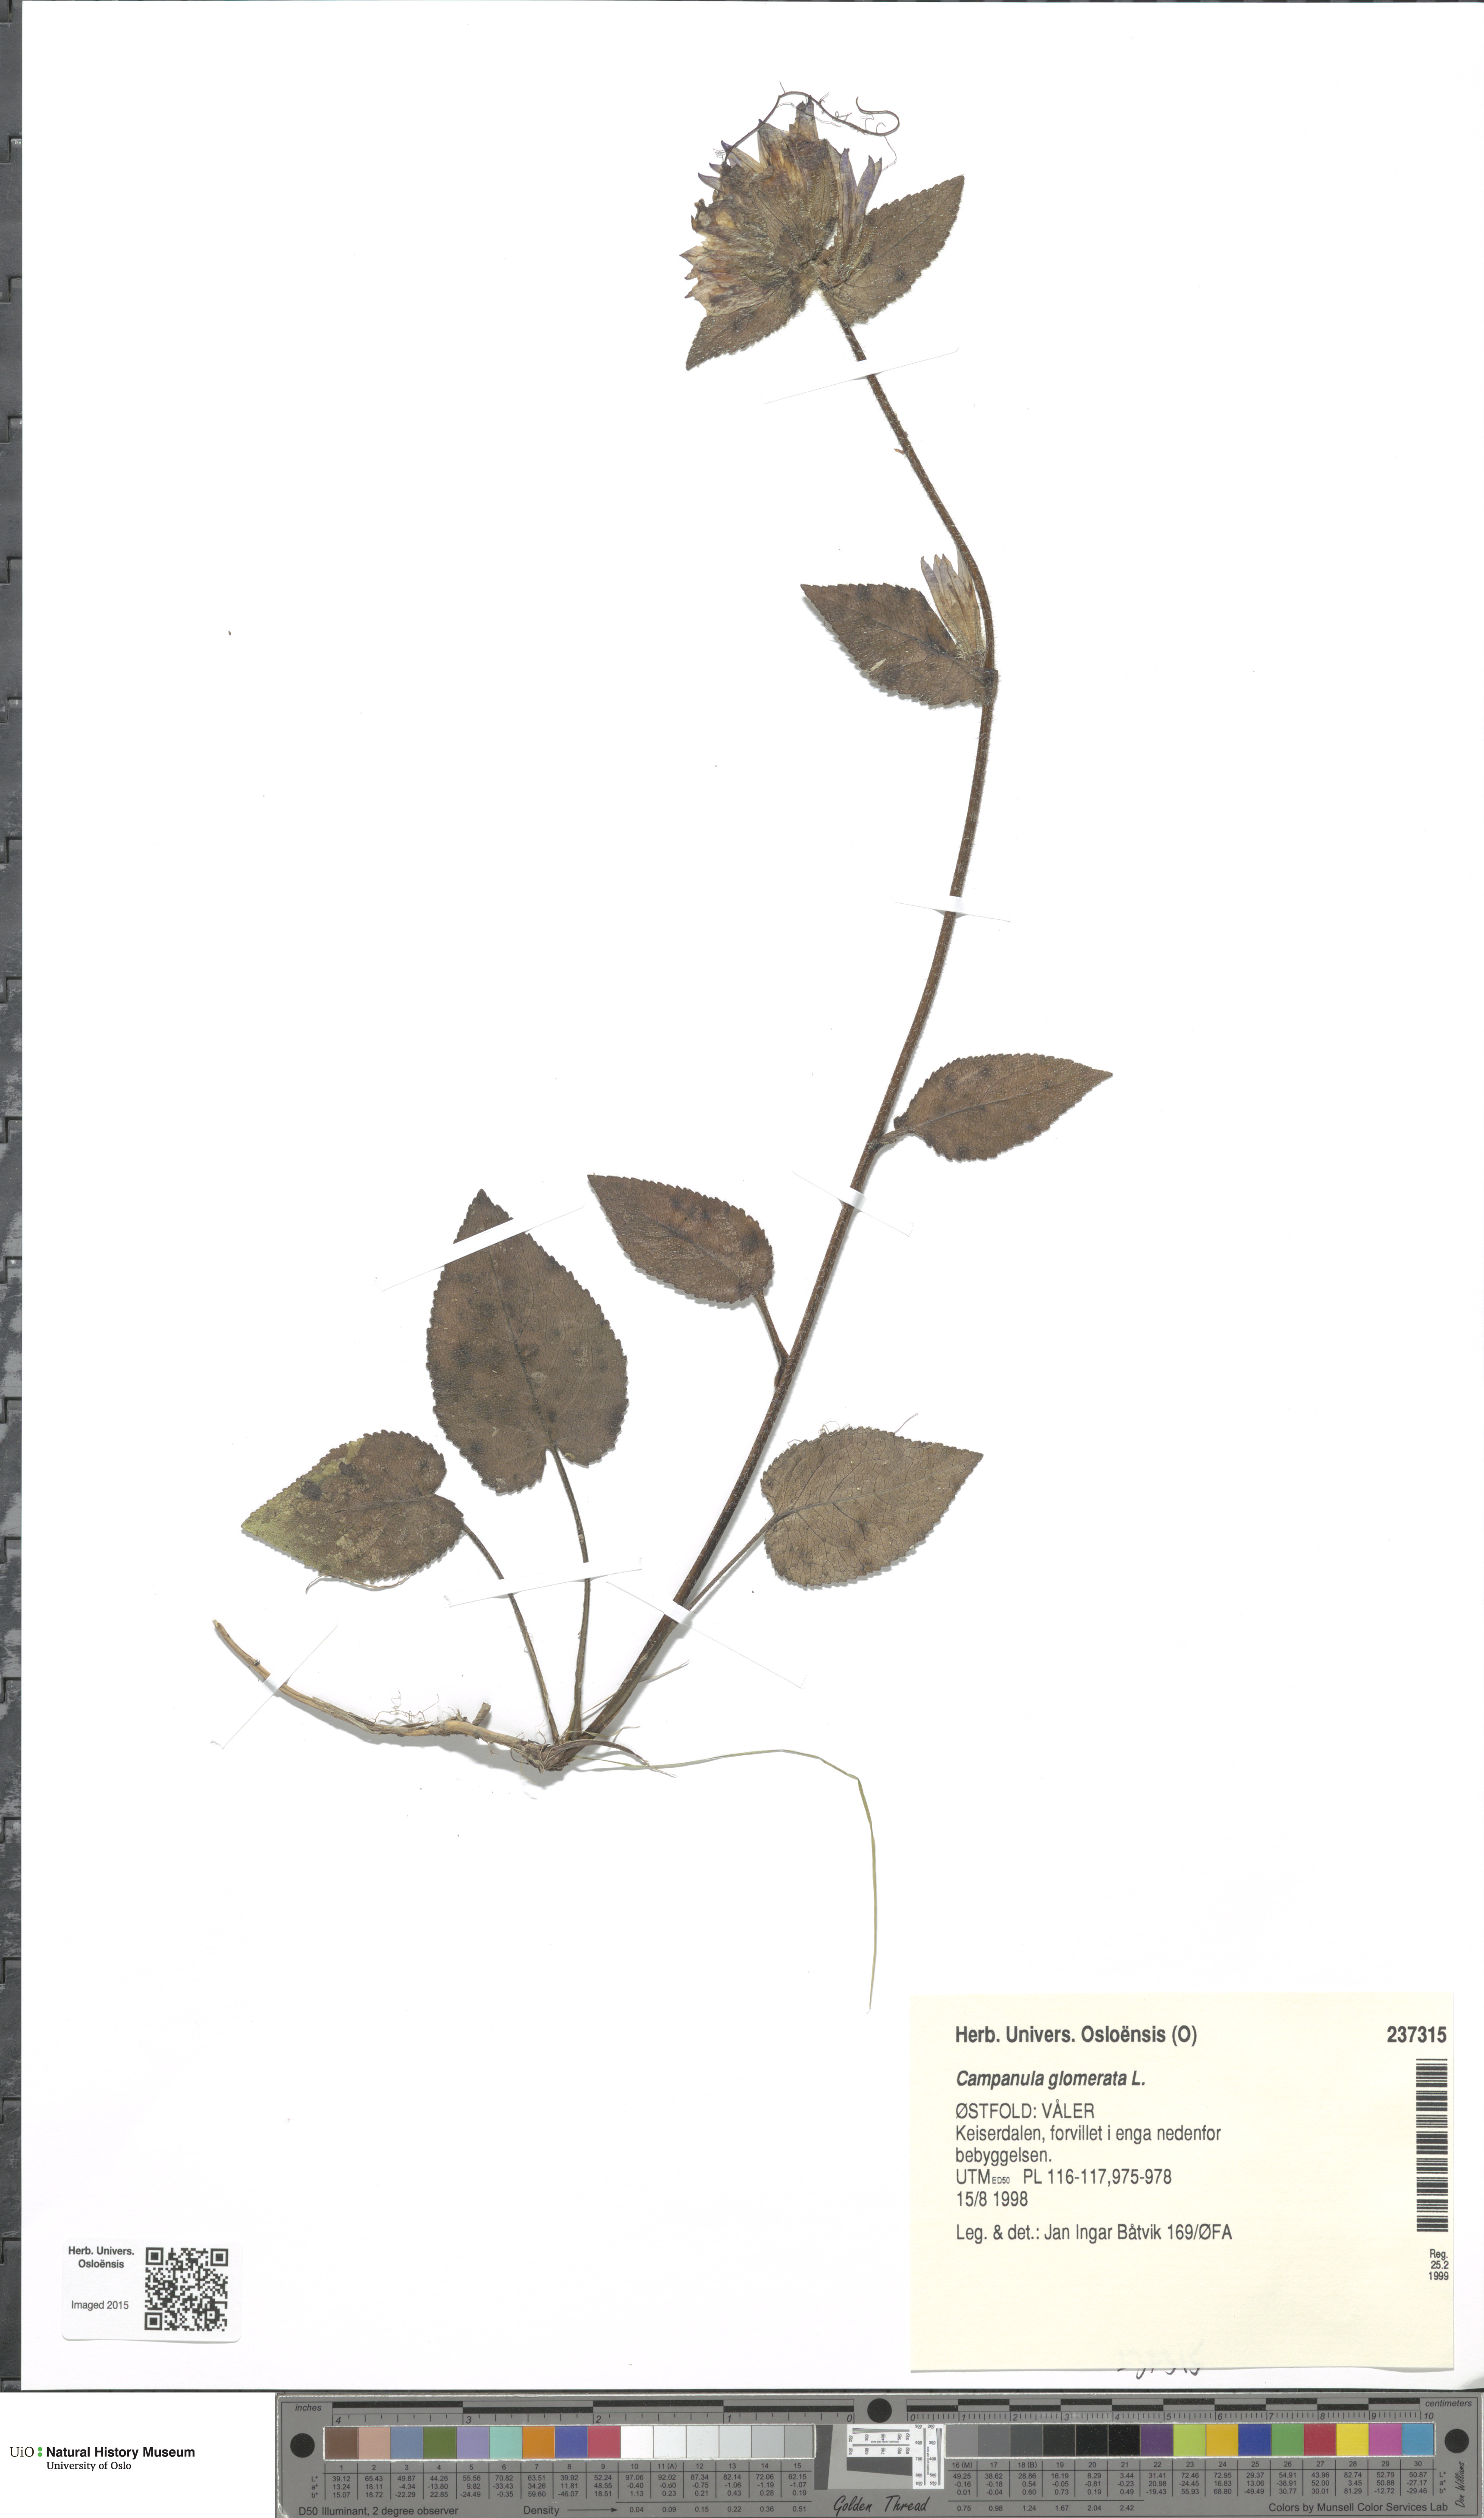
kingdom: Plantae
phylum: Tracheophyta
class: Magnoliopsida
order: Asterales
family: Campanulaceae
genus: Campanula
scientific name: Campanula glomerata
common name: Clustered bellflower
